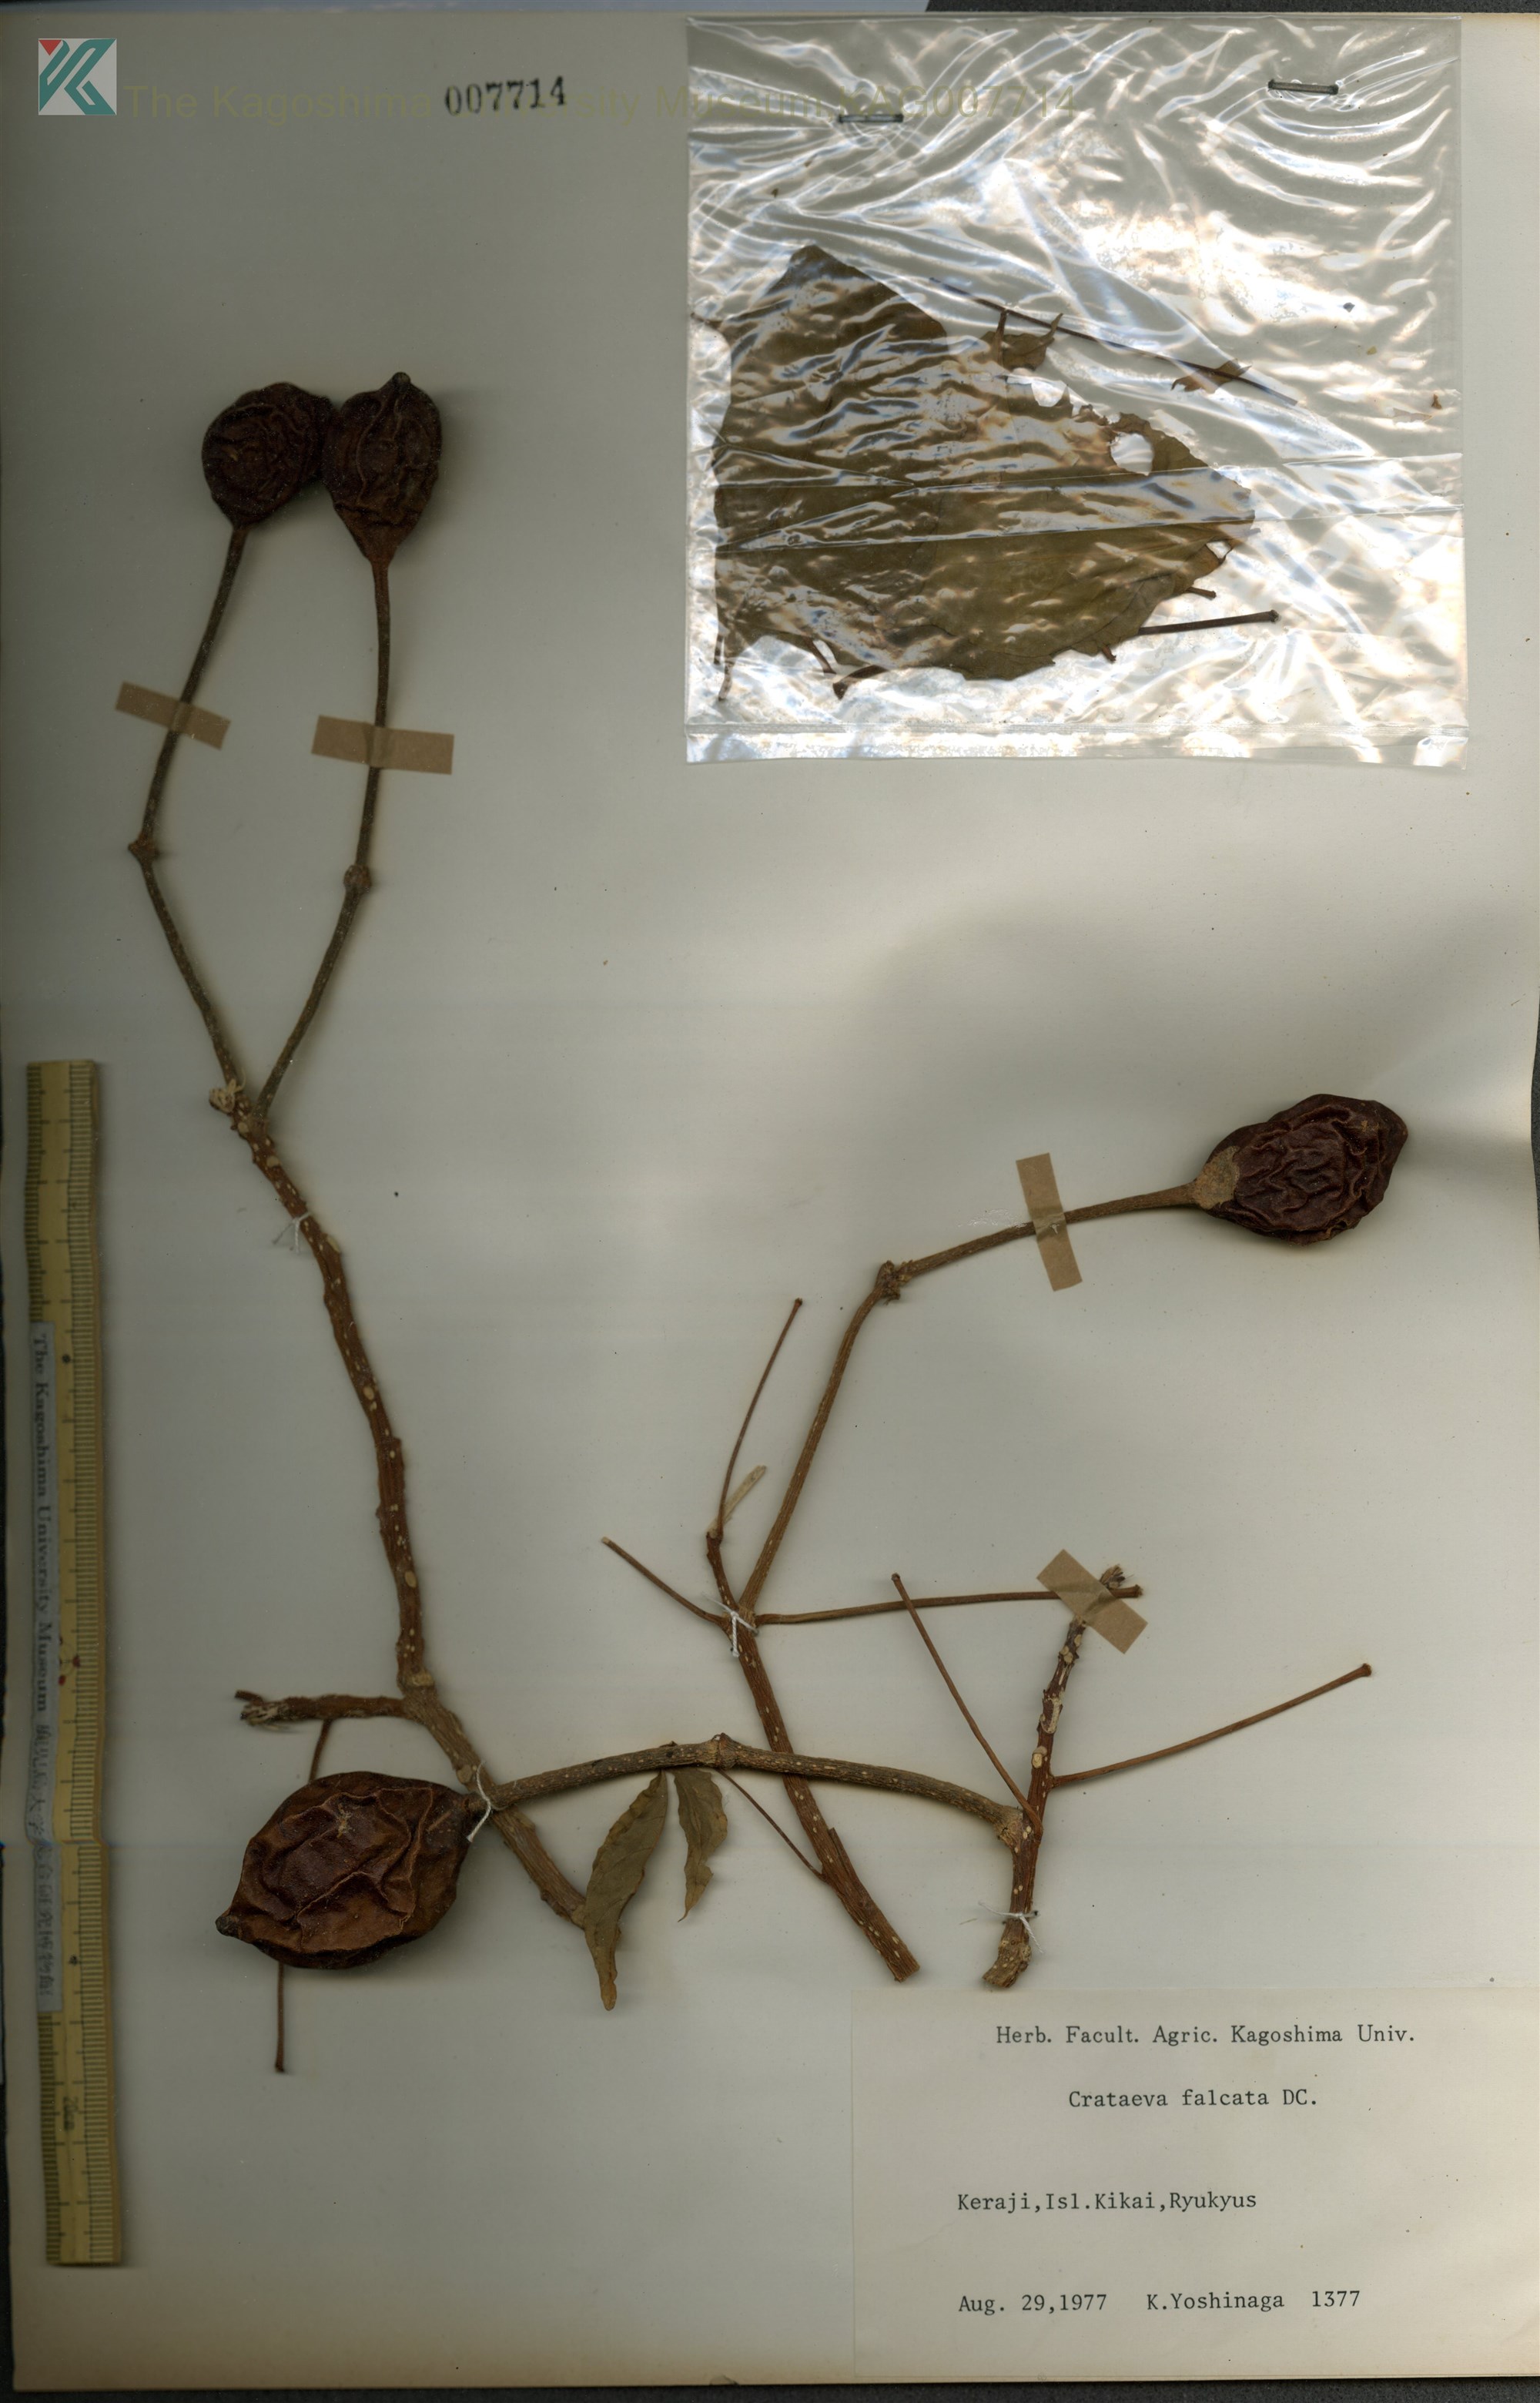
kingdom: Plantae
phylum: Tracheophyta
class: Magnoliopsida
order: Brassicales
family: Capparaceae
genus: Crateva
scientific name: Crateva formosensis
